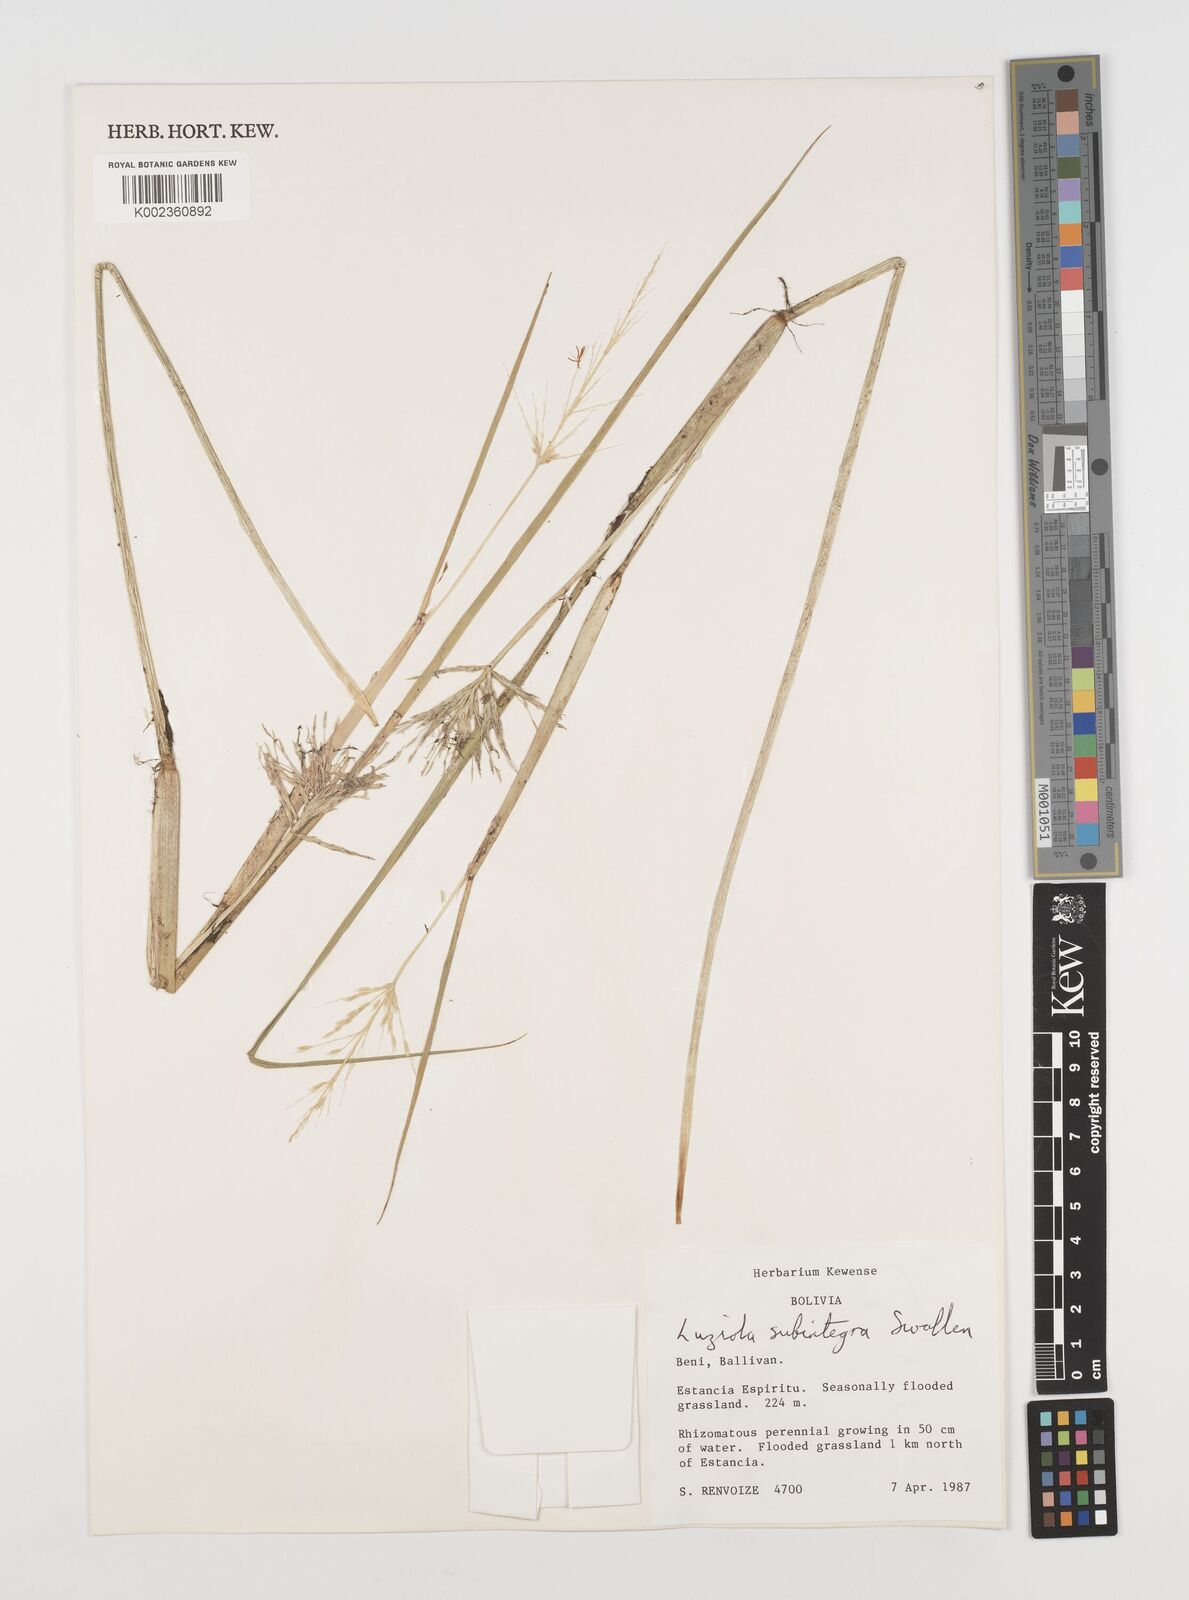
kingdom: Plantae
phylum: Tracheophyta
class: Liliopsida
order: Poales
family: Poaceae
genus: Luziola
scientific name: Luziola subintegra
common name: Large watergrass
